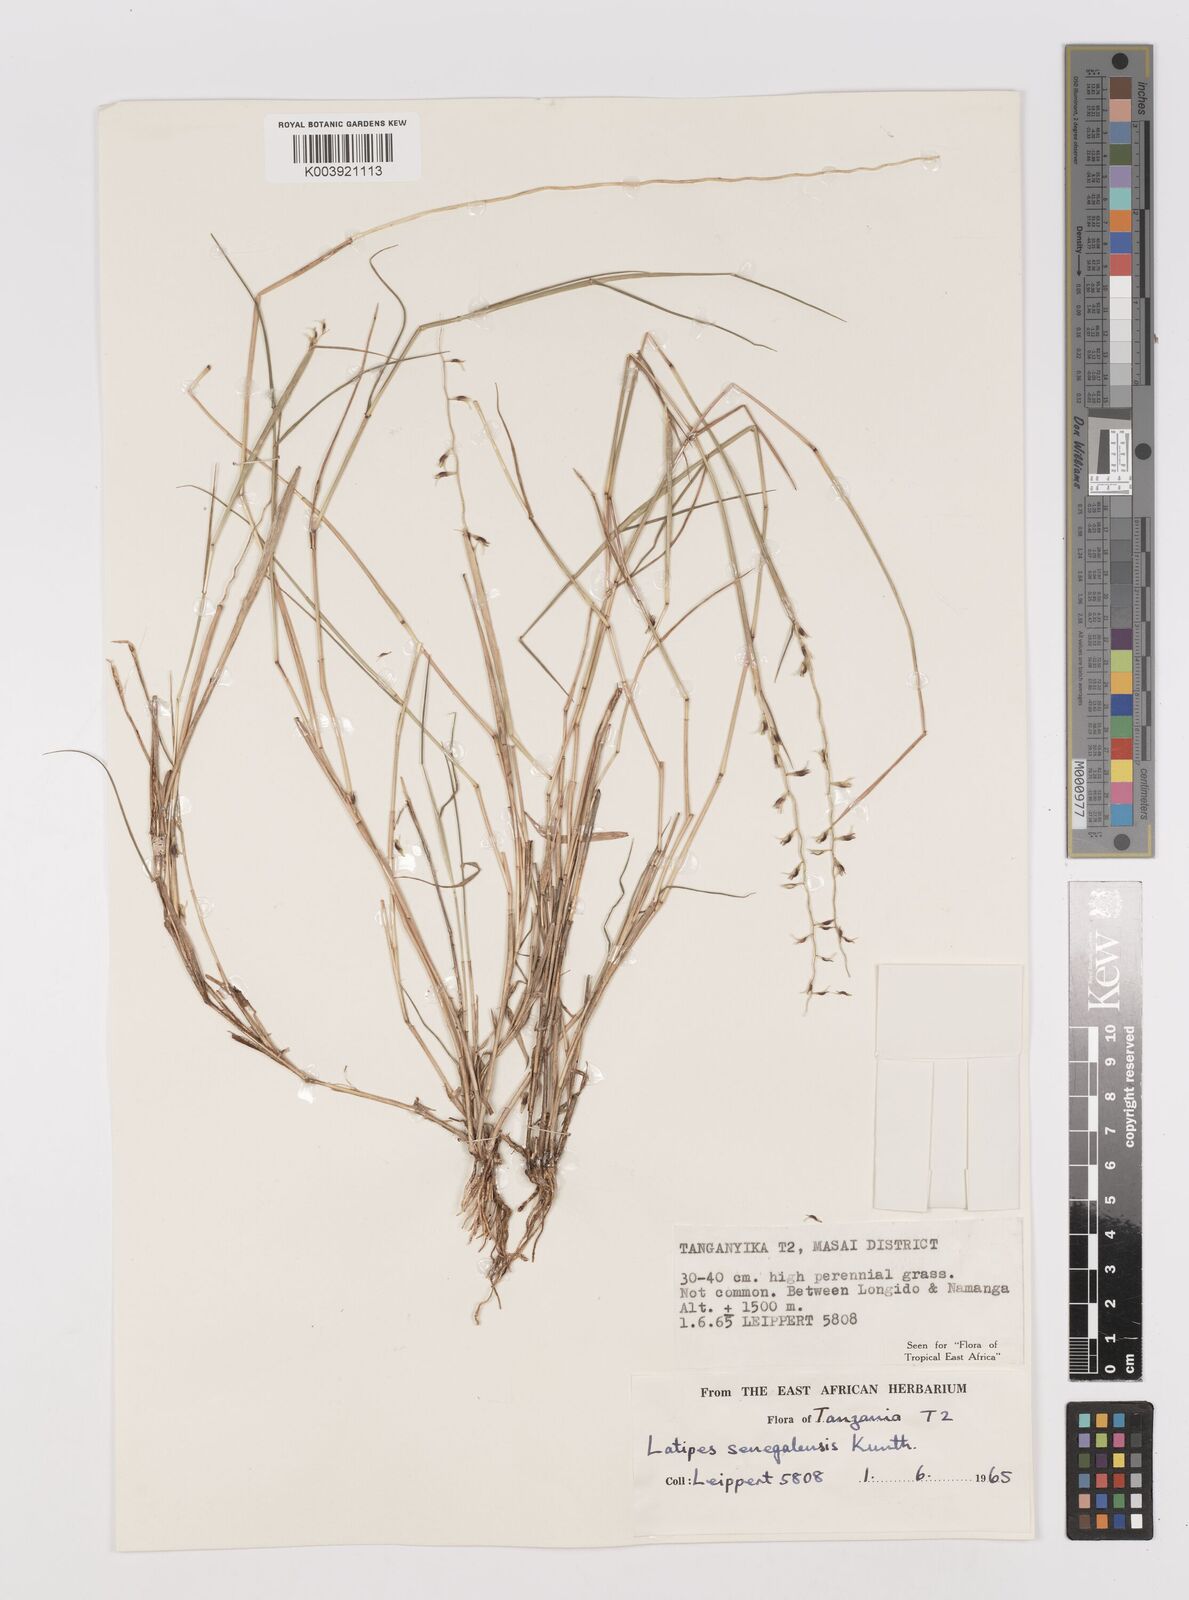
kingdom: Plantae
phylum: Tracheophyta
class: Liliopsida
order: Poales
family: Poaceae
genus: Leptothrium
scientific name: Leptothrium senegalense
